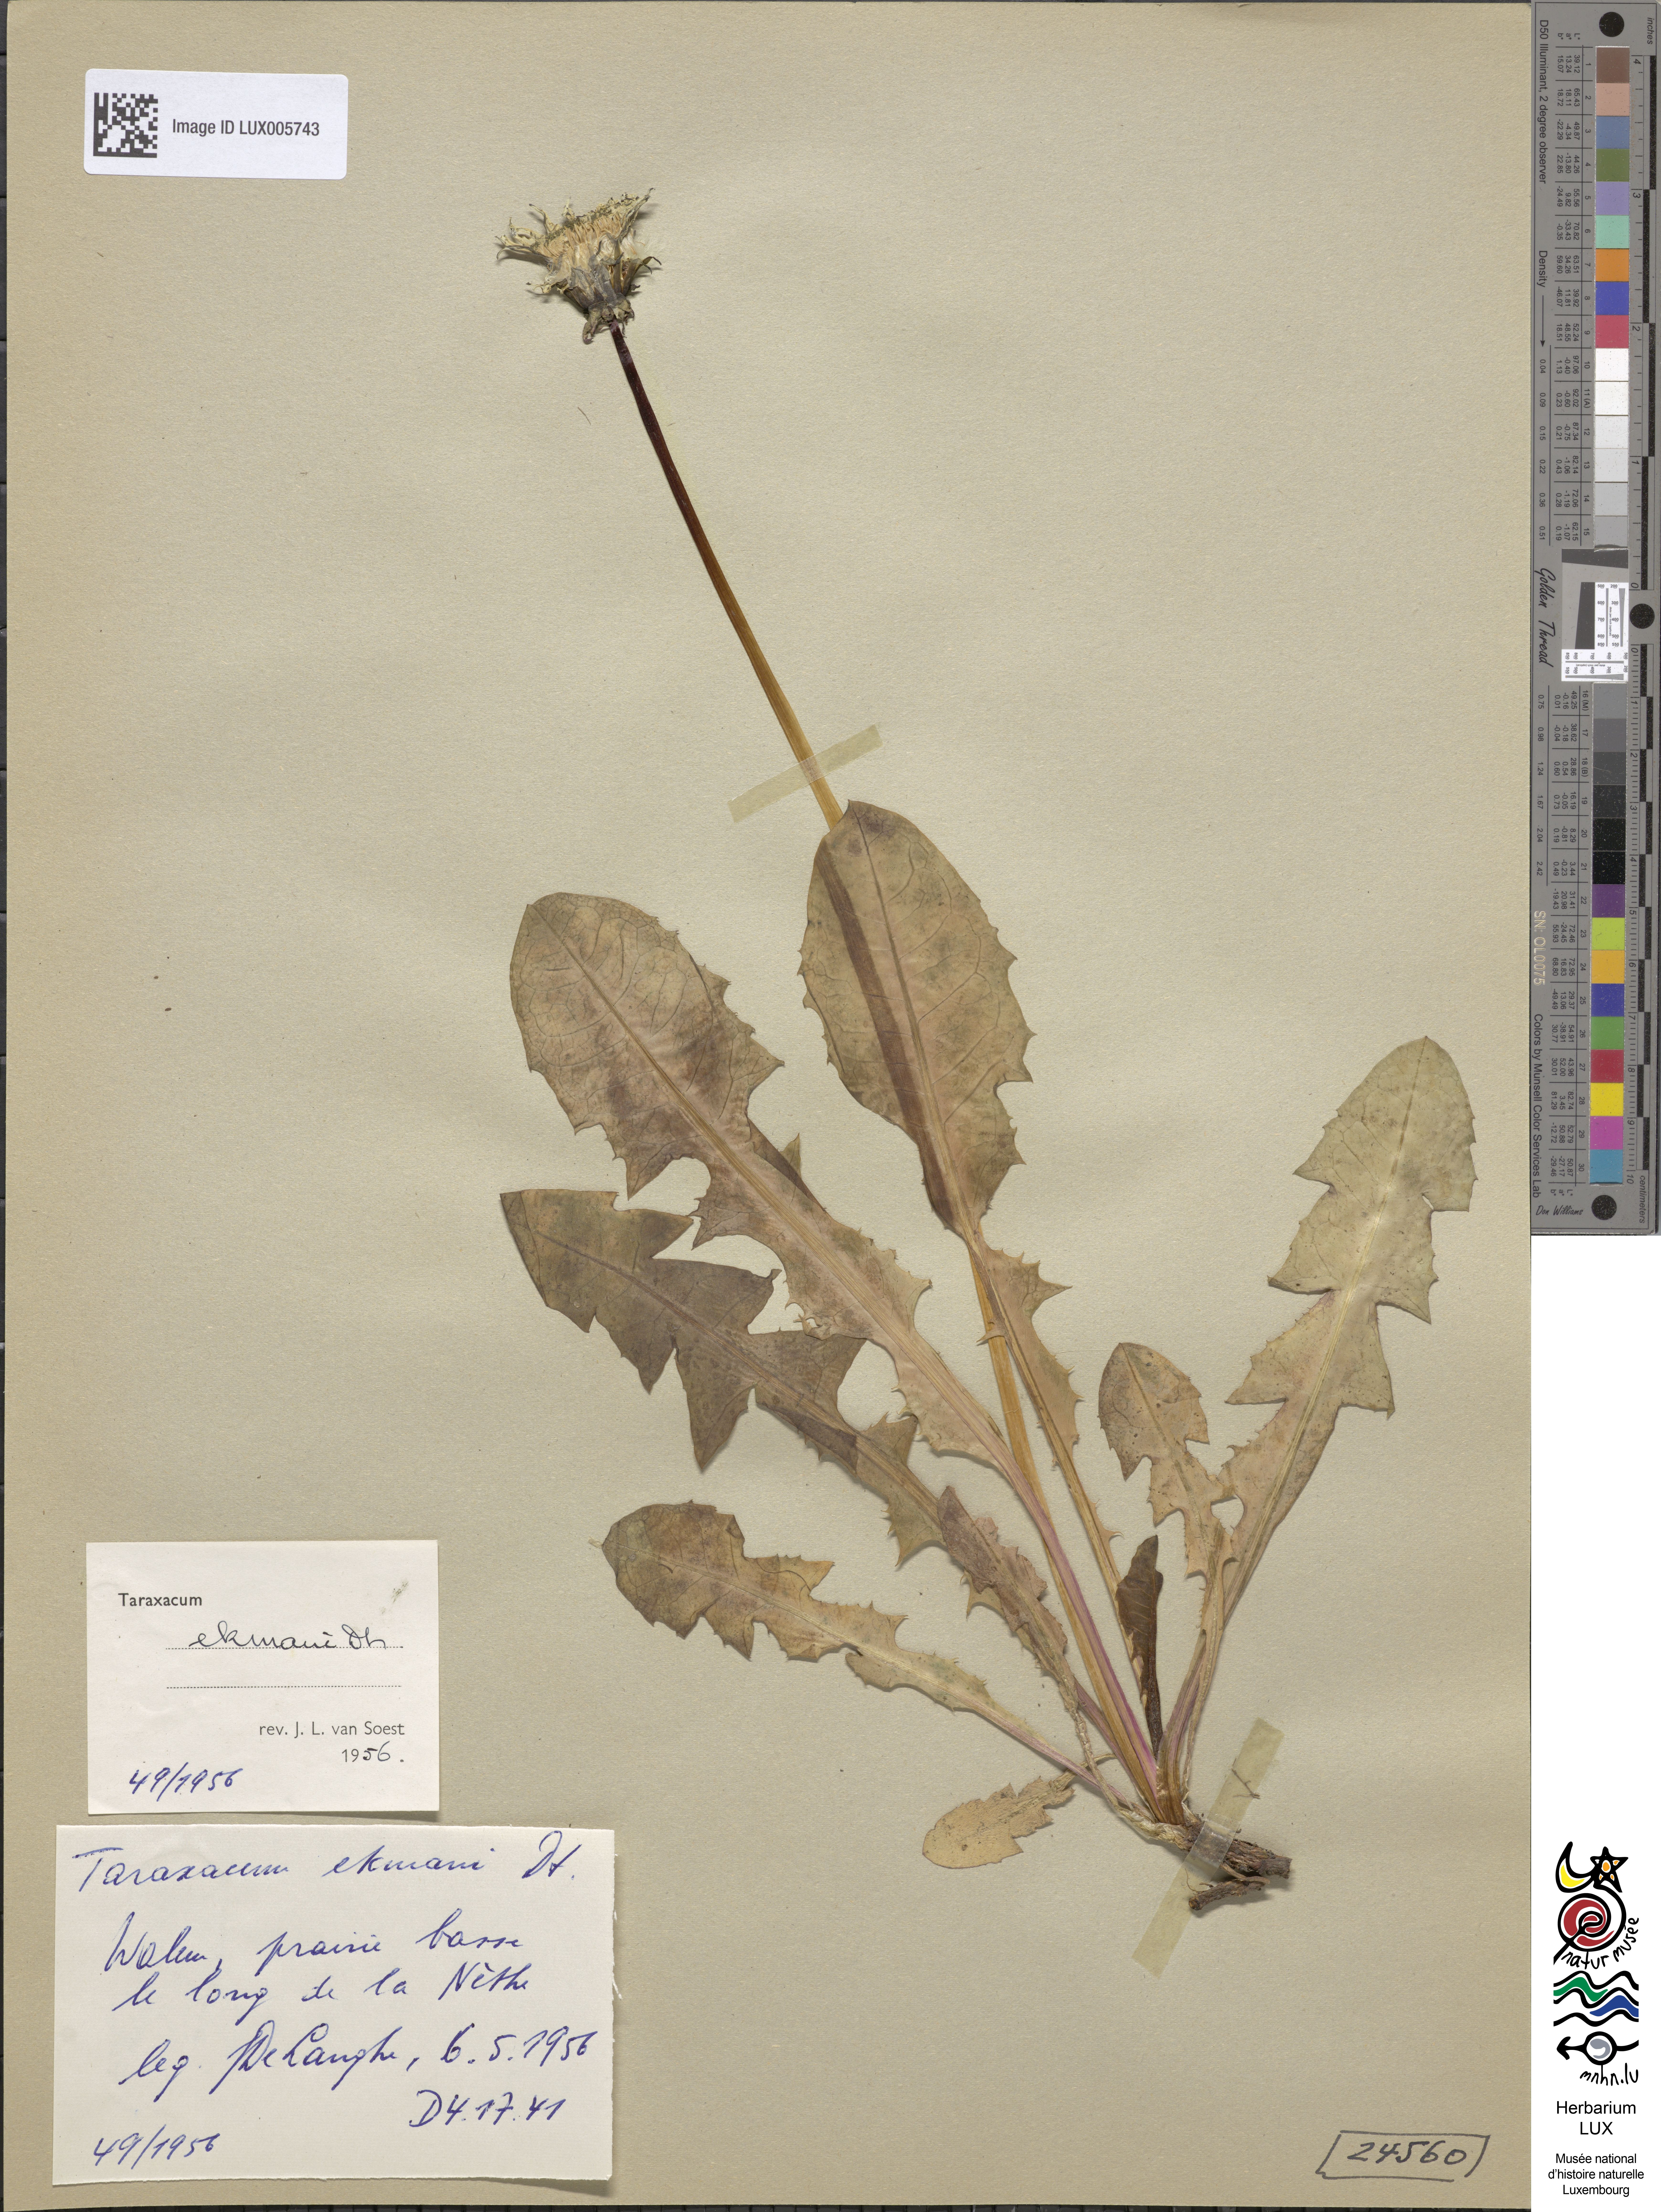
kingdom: Plantae
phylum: Tracheophyta
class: Magnoliopsida
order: Asterales
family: Asteraceae
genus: Taraxacum
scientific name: Taraxacum ekmanii
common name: Ekman's dandelion
